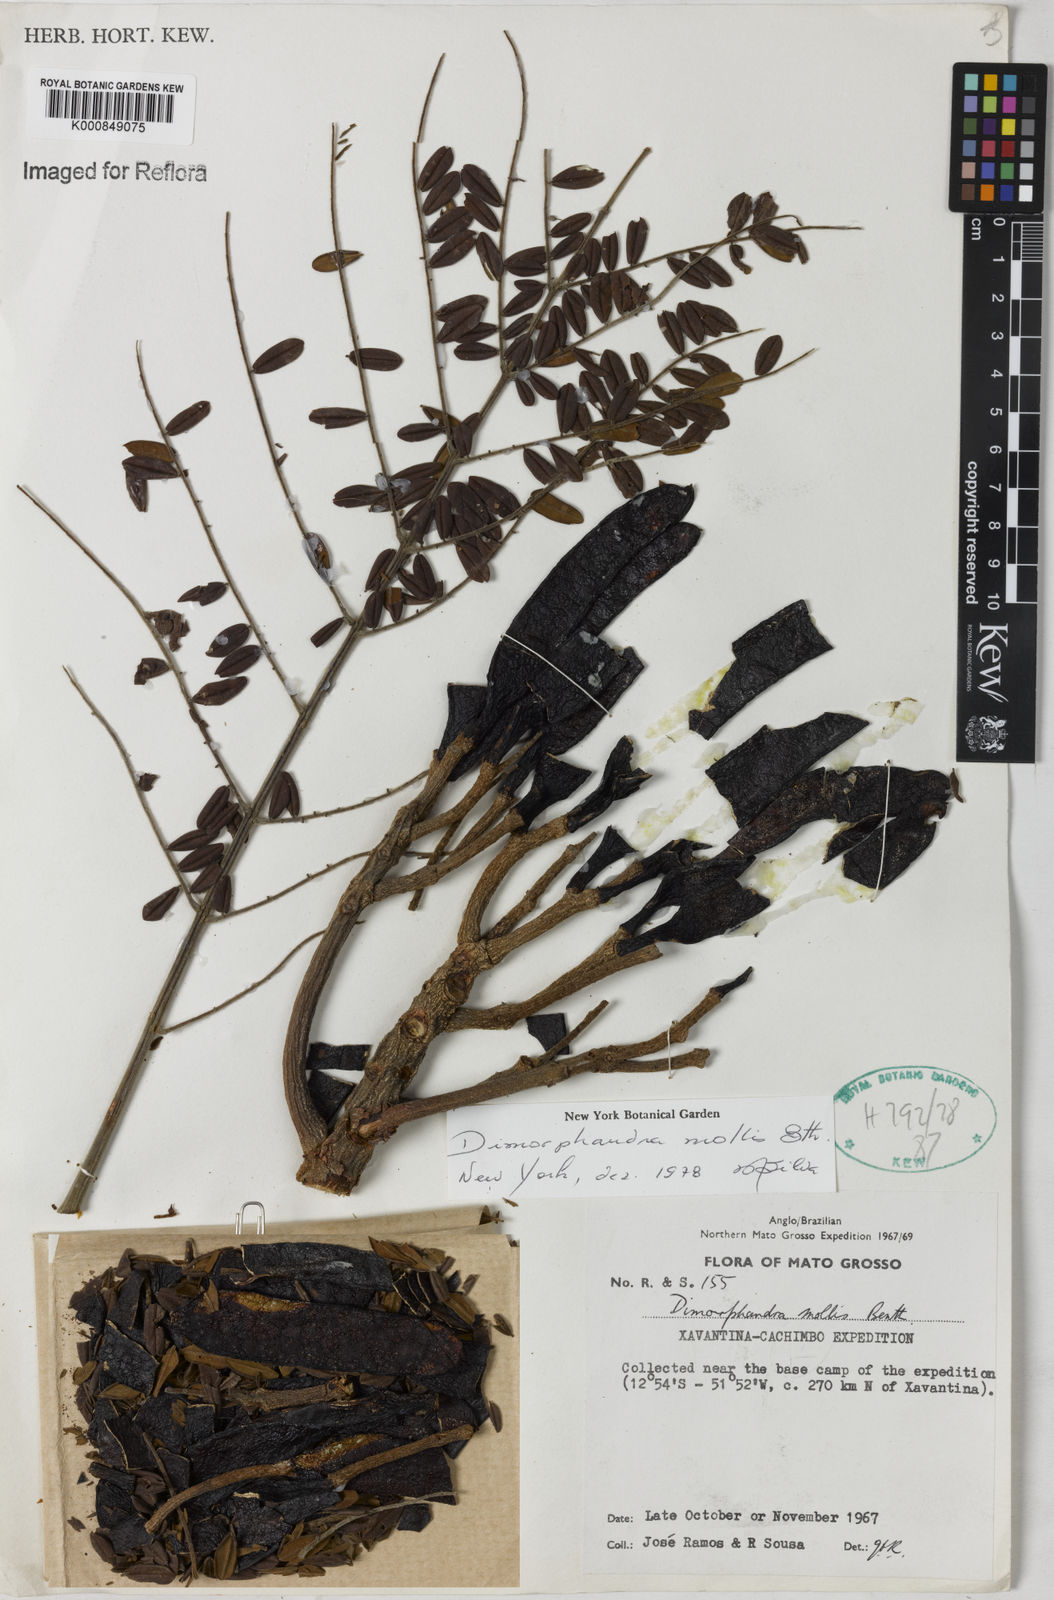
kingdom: Plantae
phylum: Tracheophyta
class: Magnoliopsida
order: Fabales
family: Fabaceae
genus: Dimorphandra
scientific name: Dimorphandra mollis
